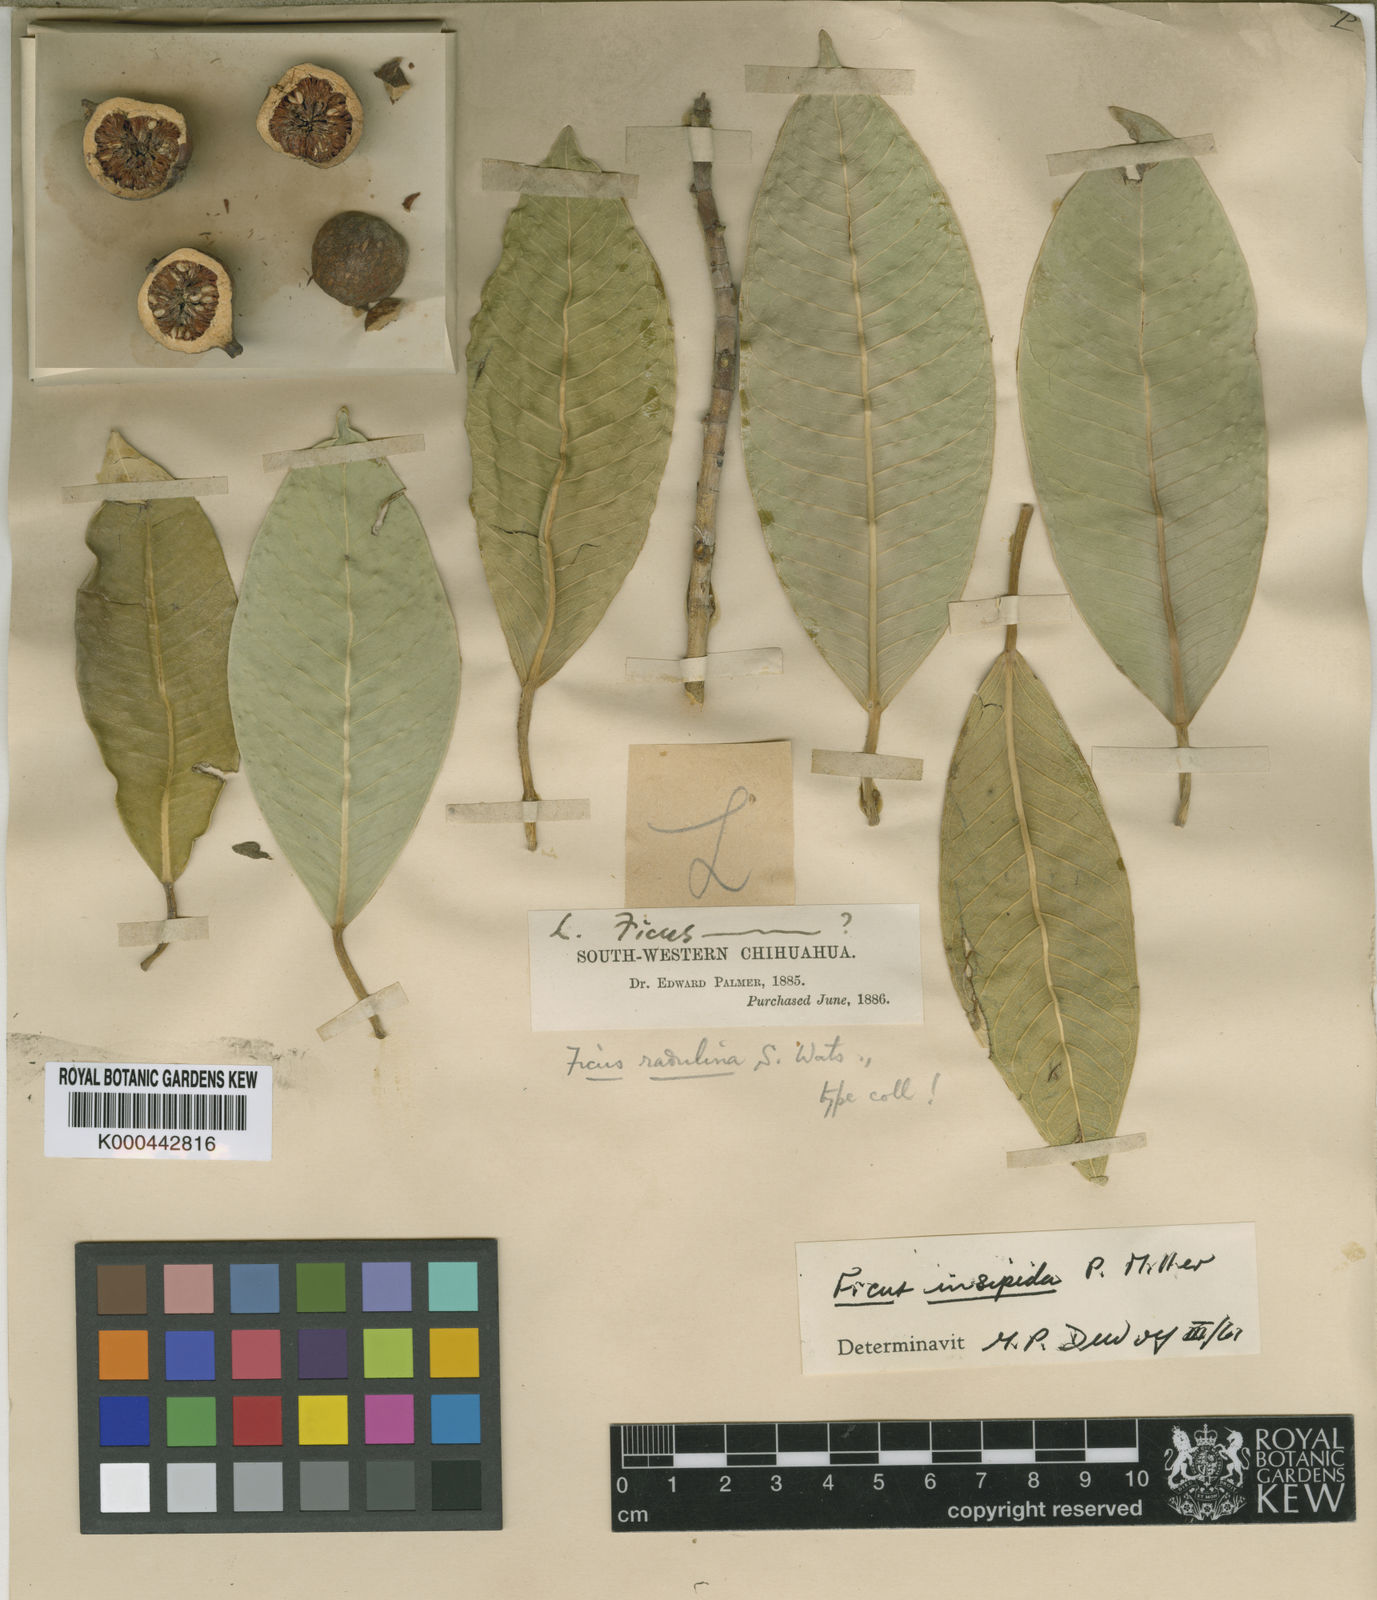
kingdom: Plantae
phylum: Tracheophyta
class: Magnoliopsida
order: Rosales
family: Moraceae
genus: Ficus
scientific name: Ficus insipida
